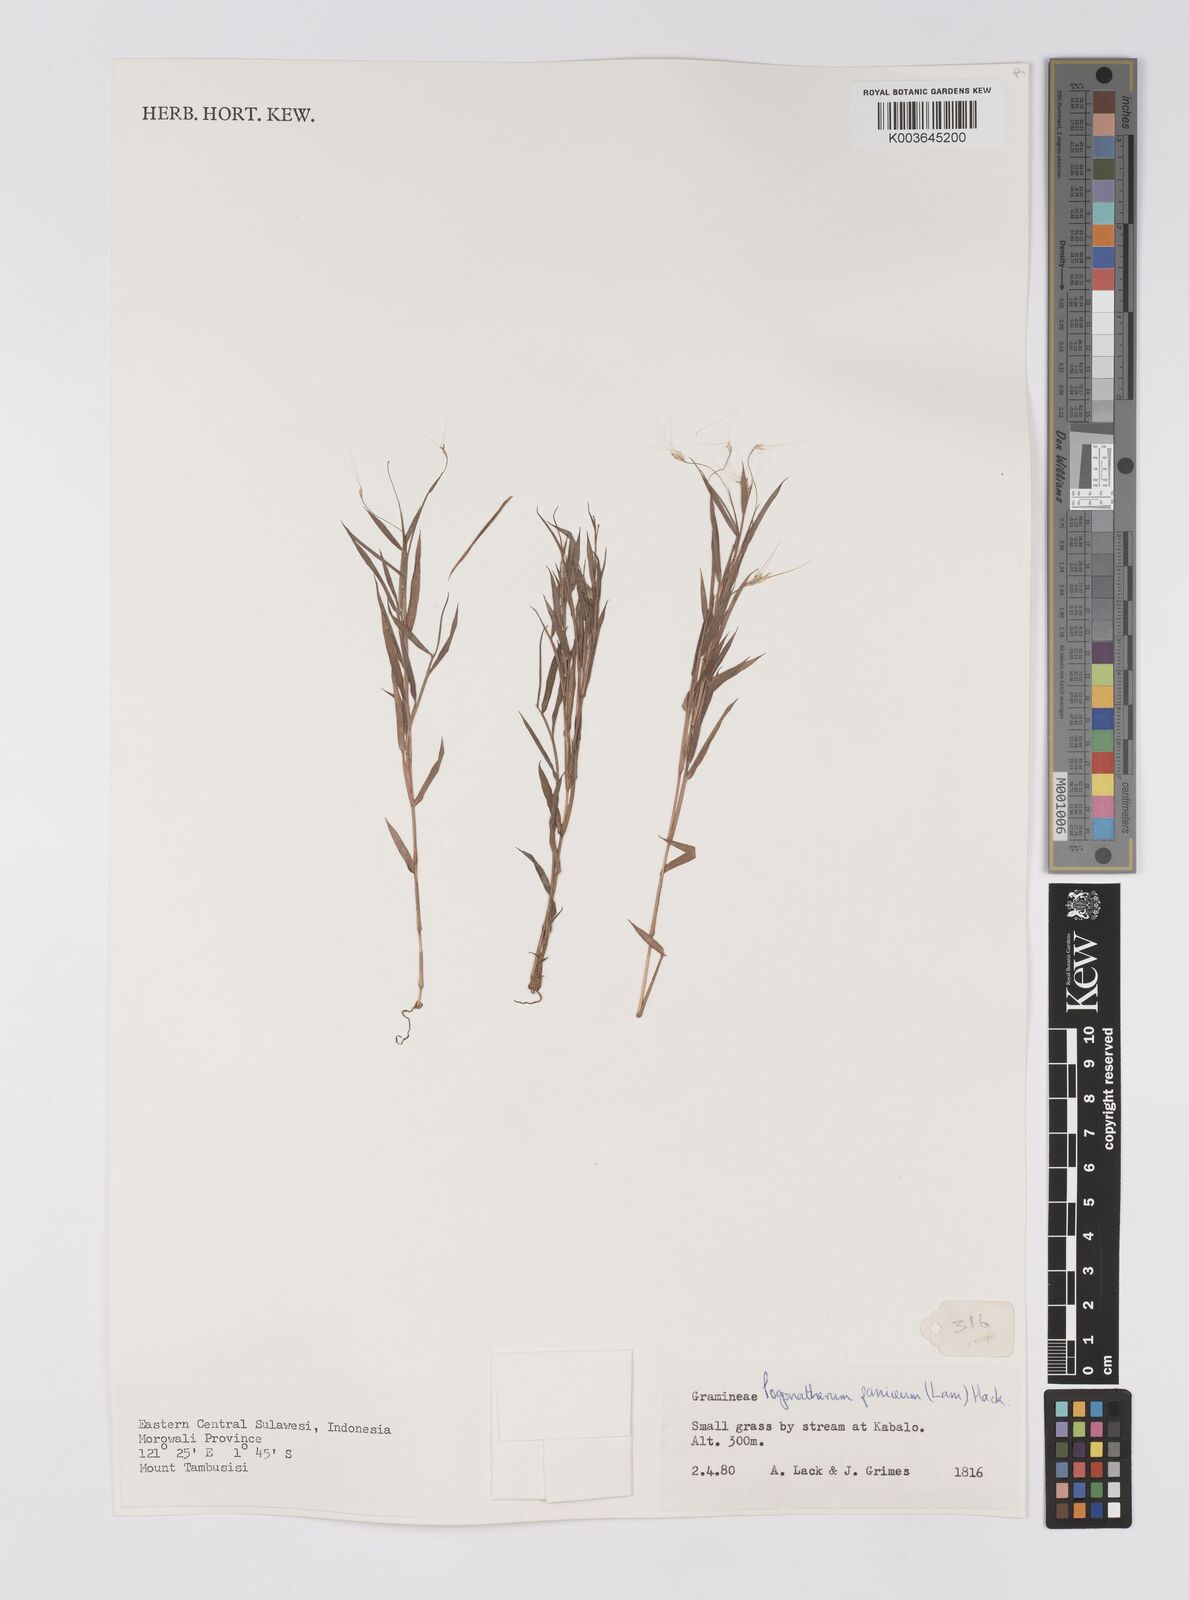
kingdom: Plantae
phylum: Tracheophyta
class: Liliopsida
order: Poales
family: Poaceae
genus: Pogonatherum
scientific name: Pogonatherum paniceum
